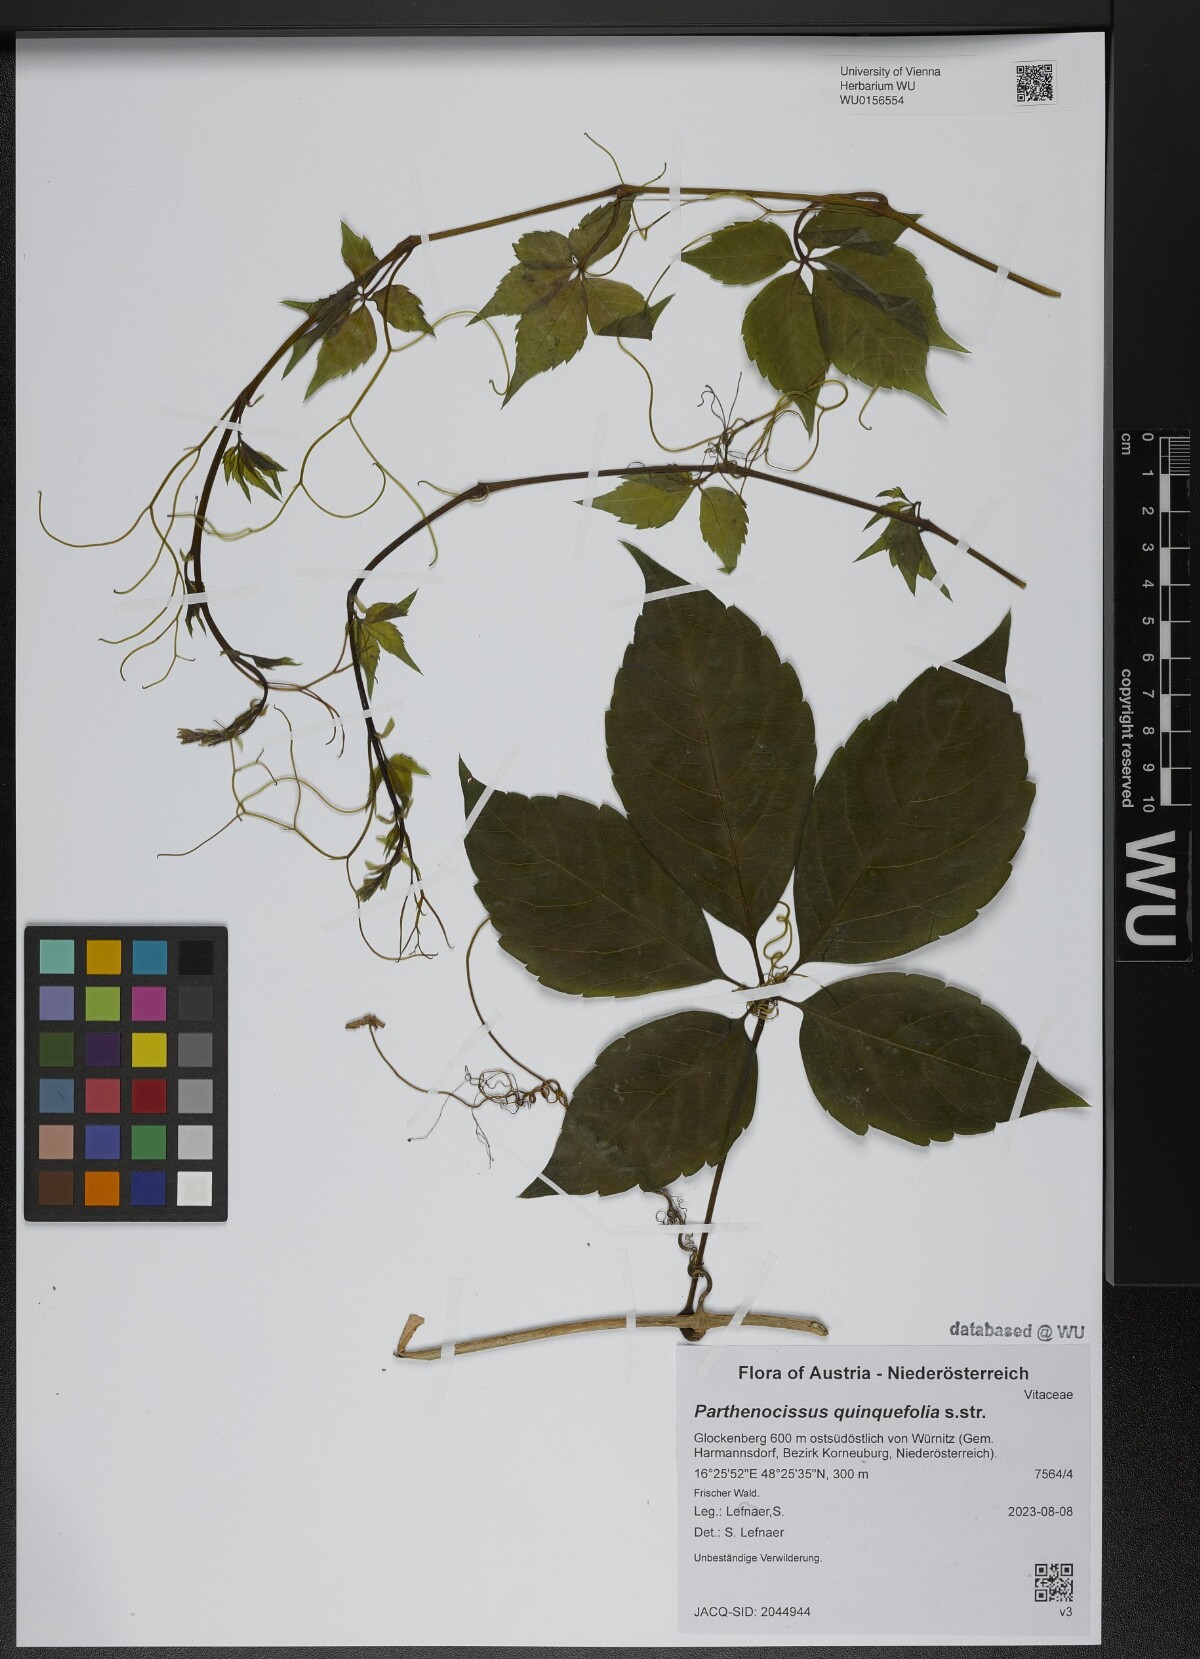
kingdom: Plantae
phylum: Tracheophyta
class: Magnoliopsida
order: Vitales
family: Vitaceae
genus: Parthenocissus
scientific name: Parthenocissus quinquefolia
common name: Virginia-creeper
